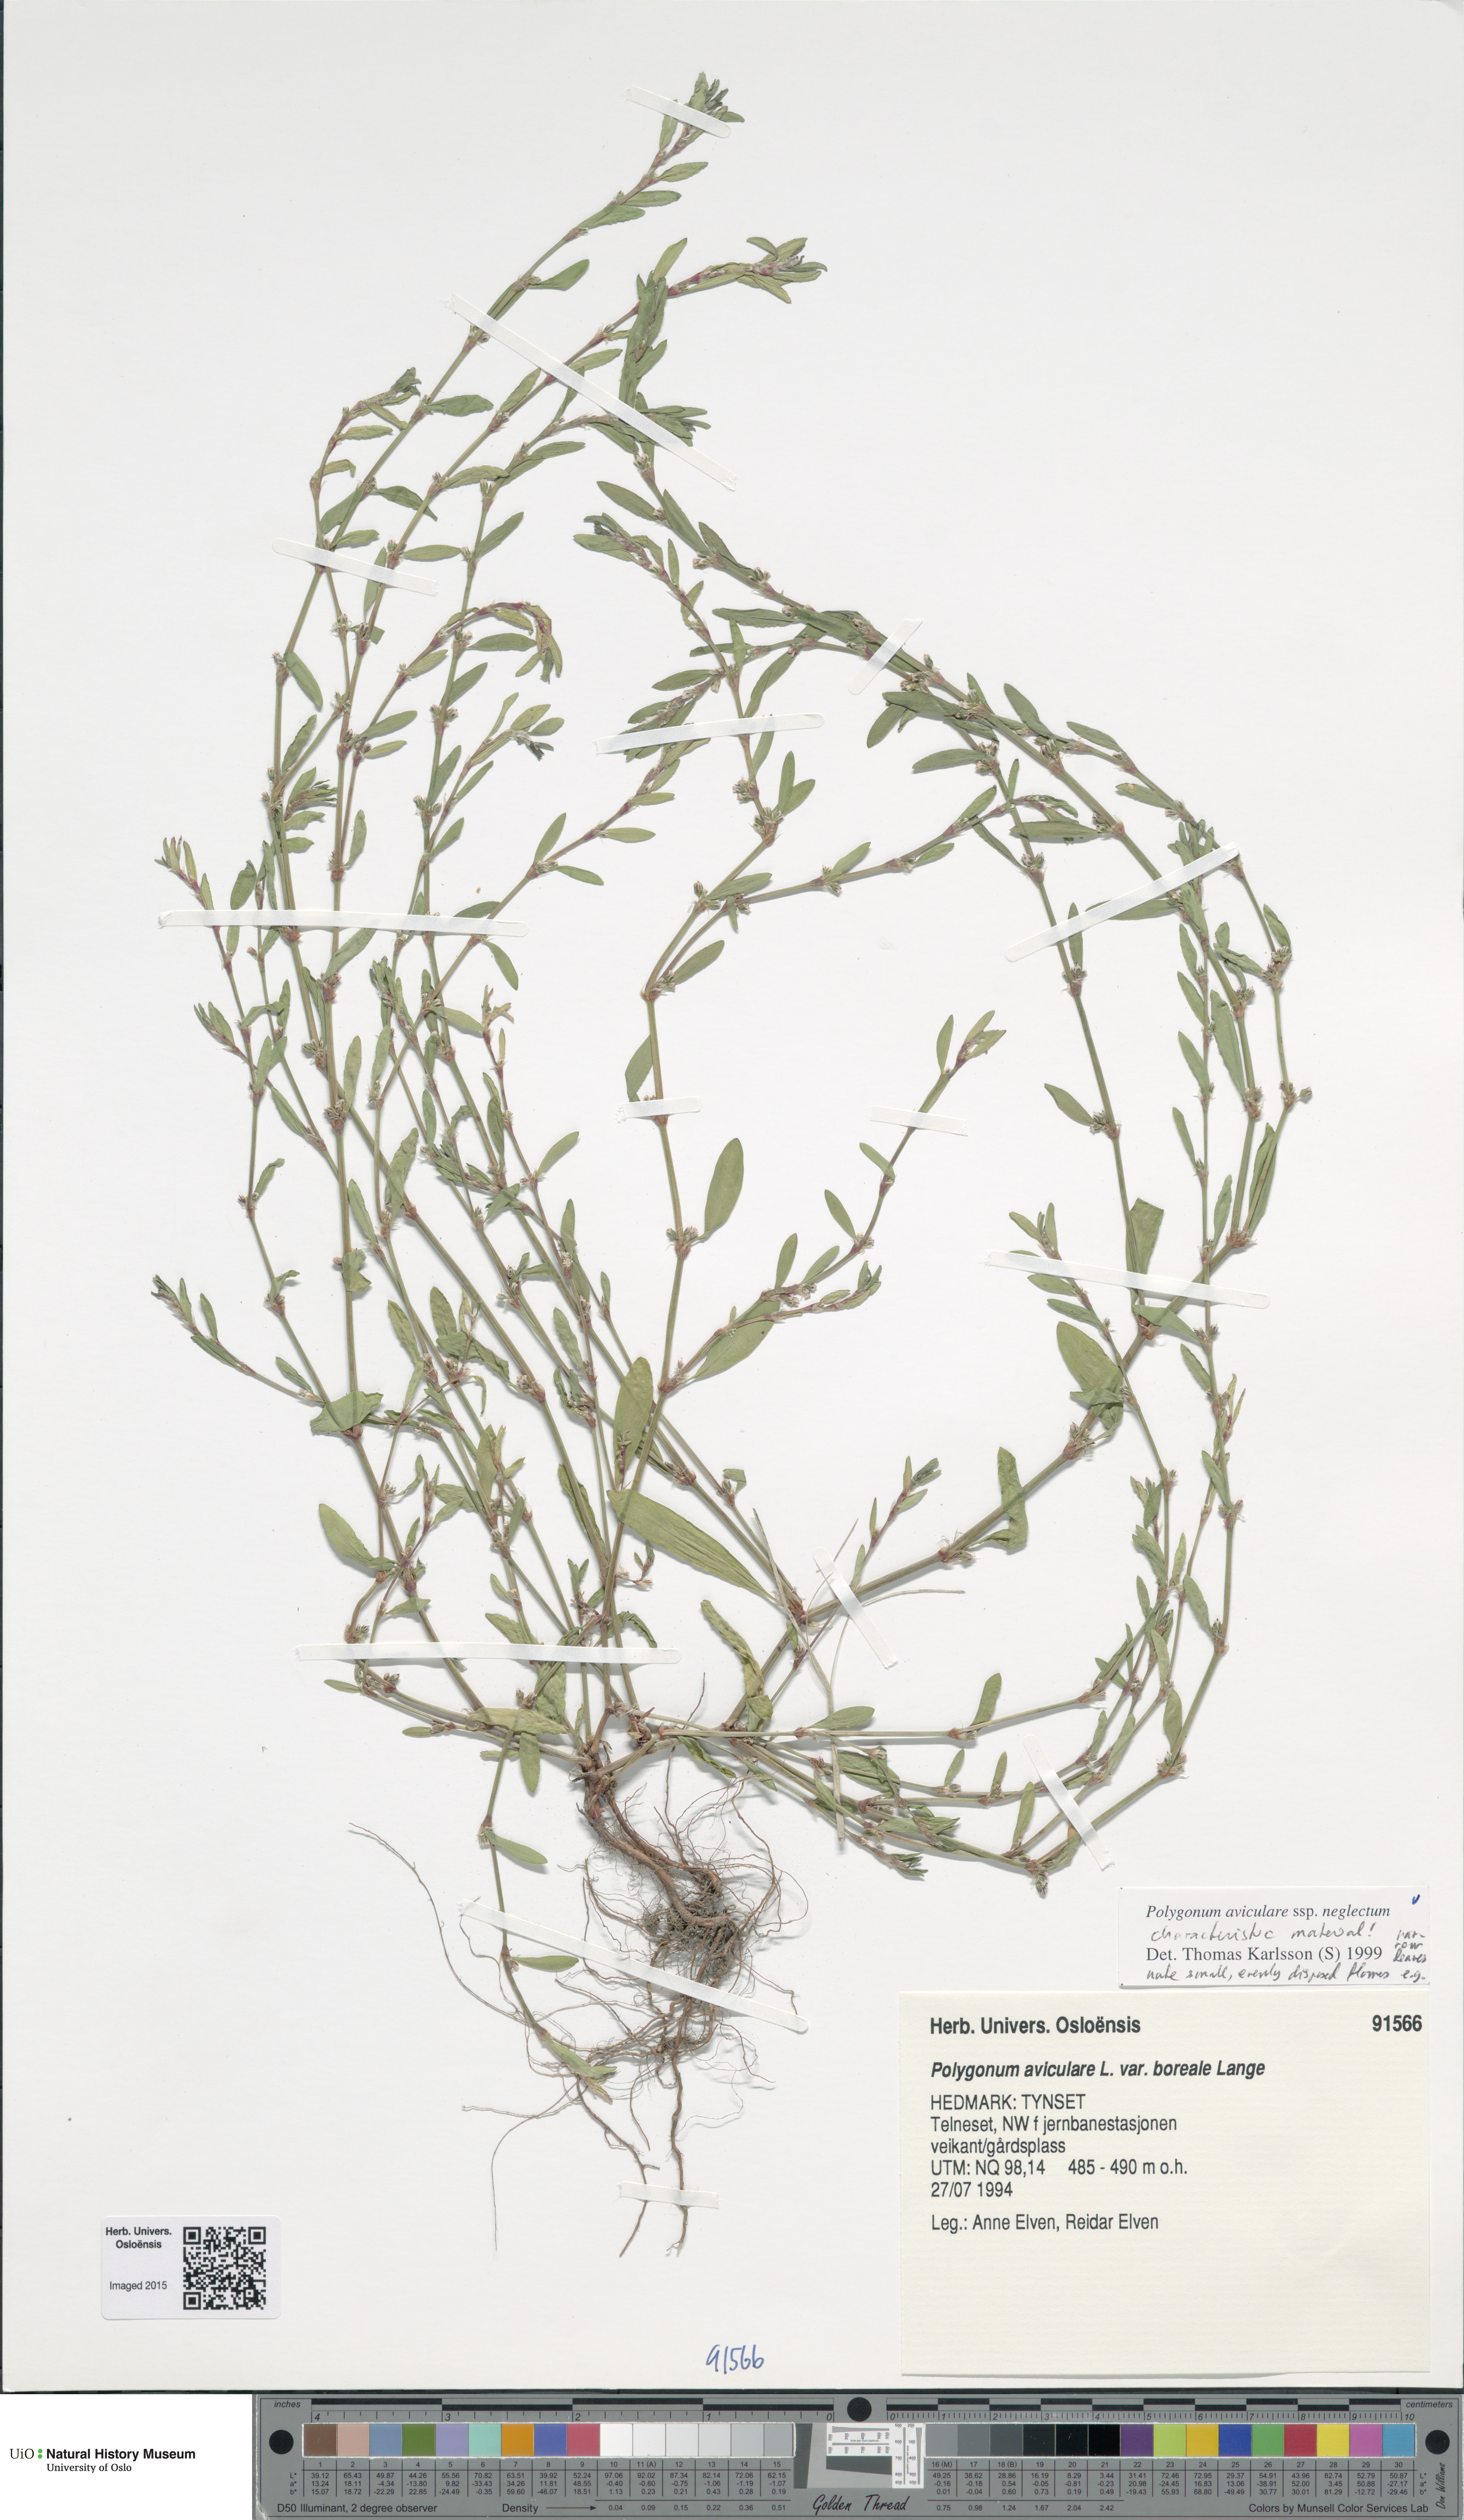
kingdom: Plantae
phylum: Tracheophyta
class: Magnoliopsida
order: Caryophyllales
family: Polygonaceae
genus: Polygonum
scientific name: Polygonum aviculare
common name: Prostrate knotweed
